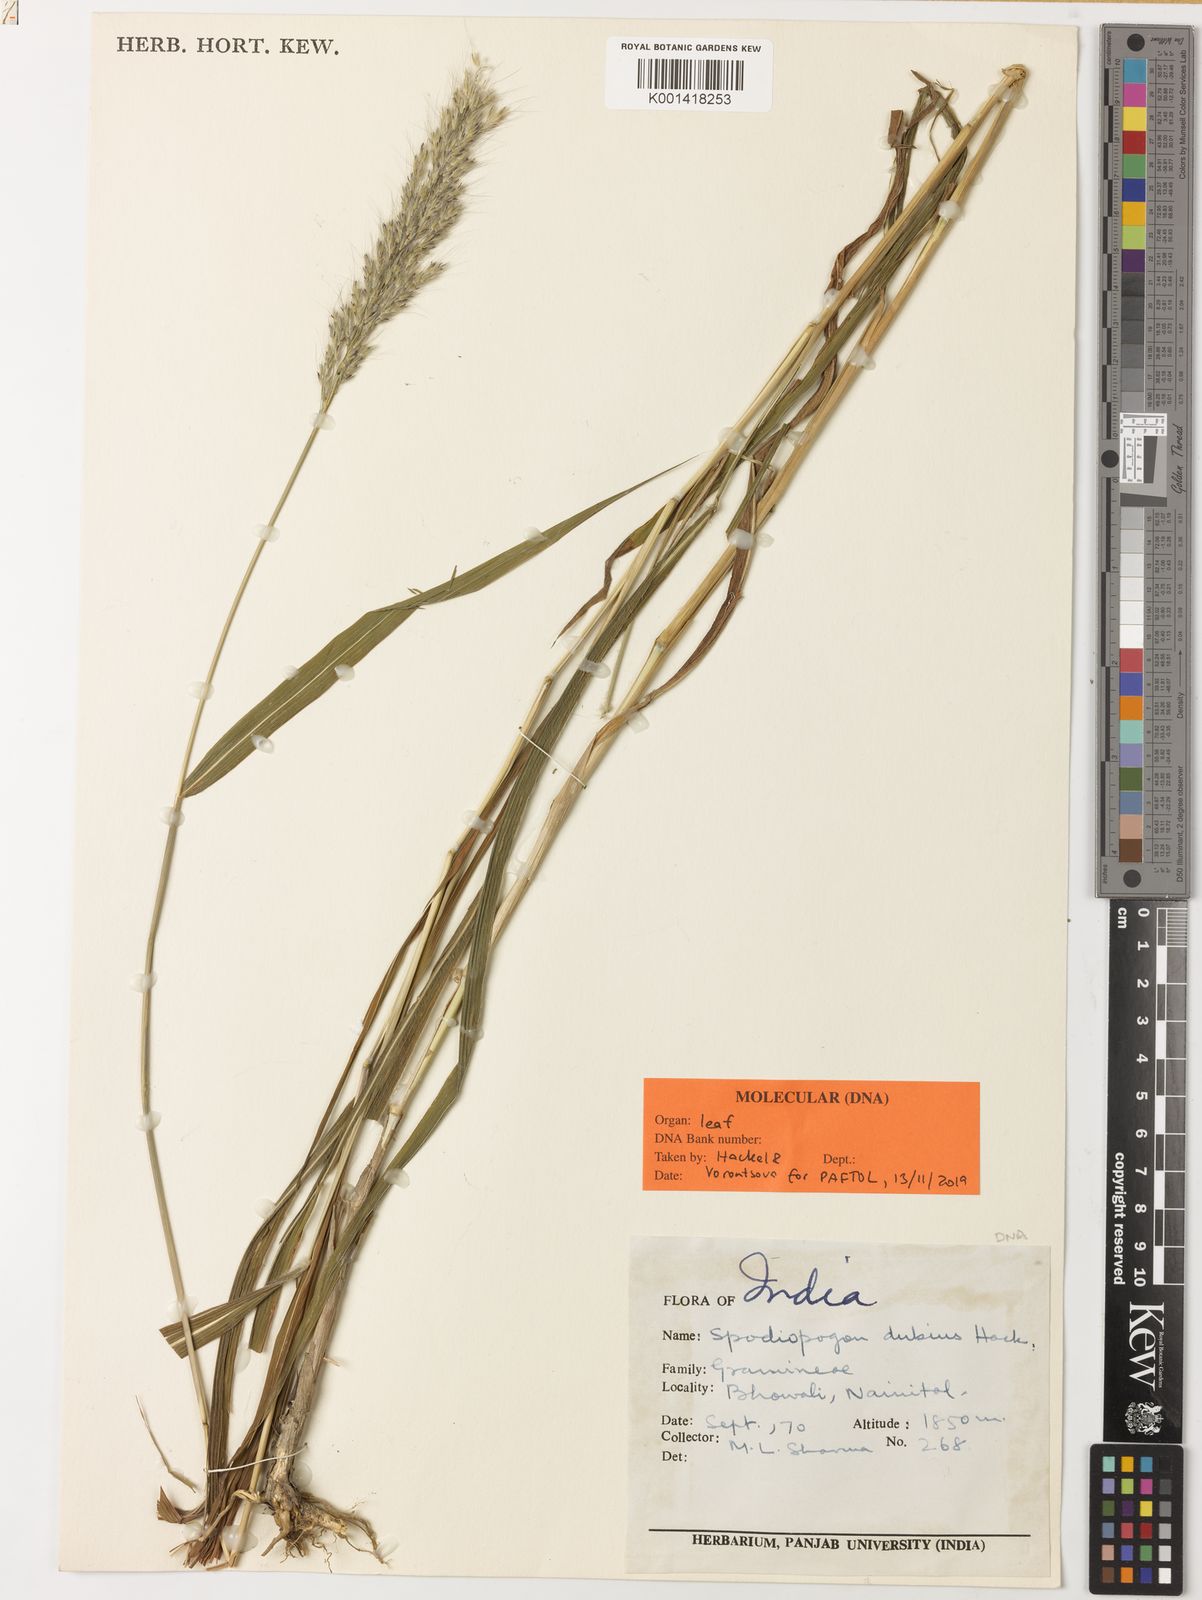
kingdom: Plantae
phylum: Tracheophyta
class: Liliopsida
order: Poales
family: Poaceae
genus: Spodiopogon
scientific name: Spodiopogon dubius
